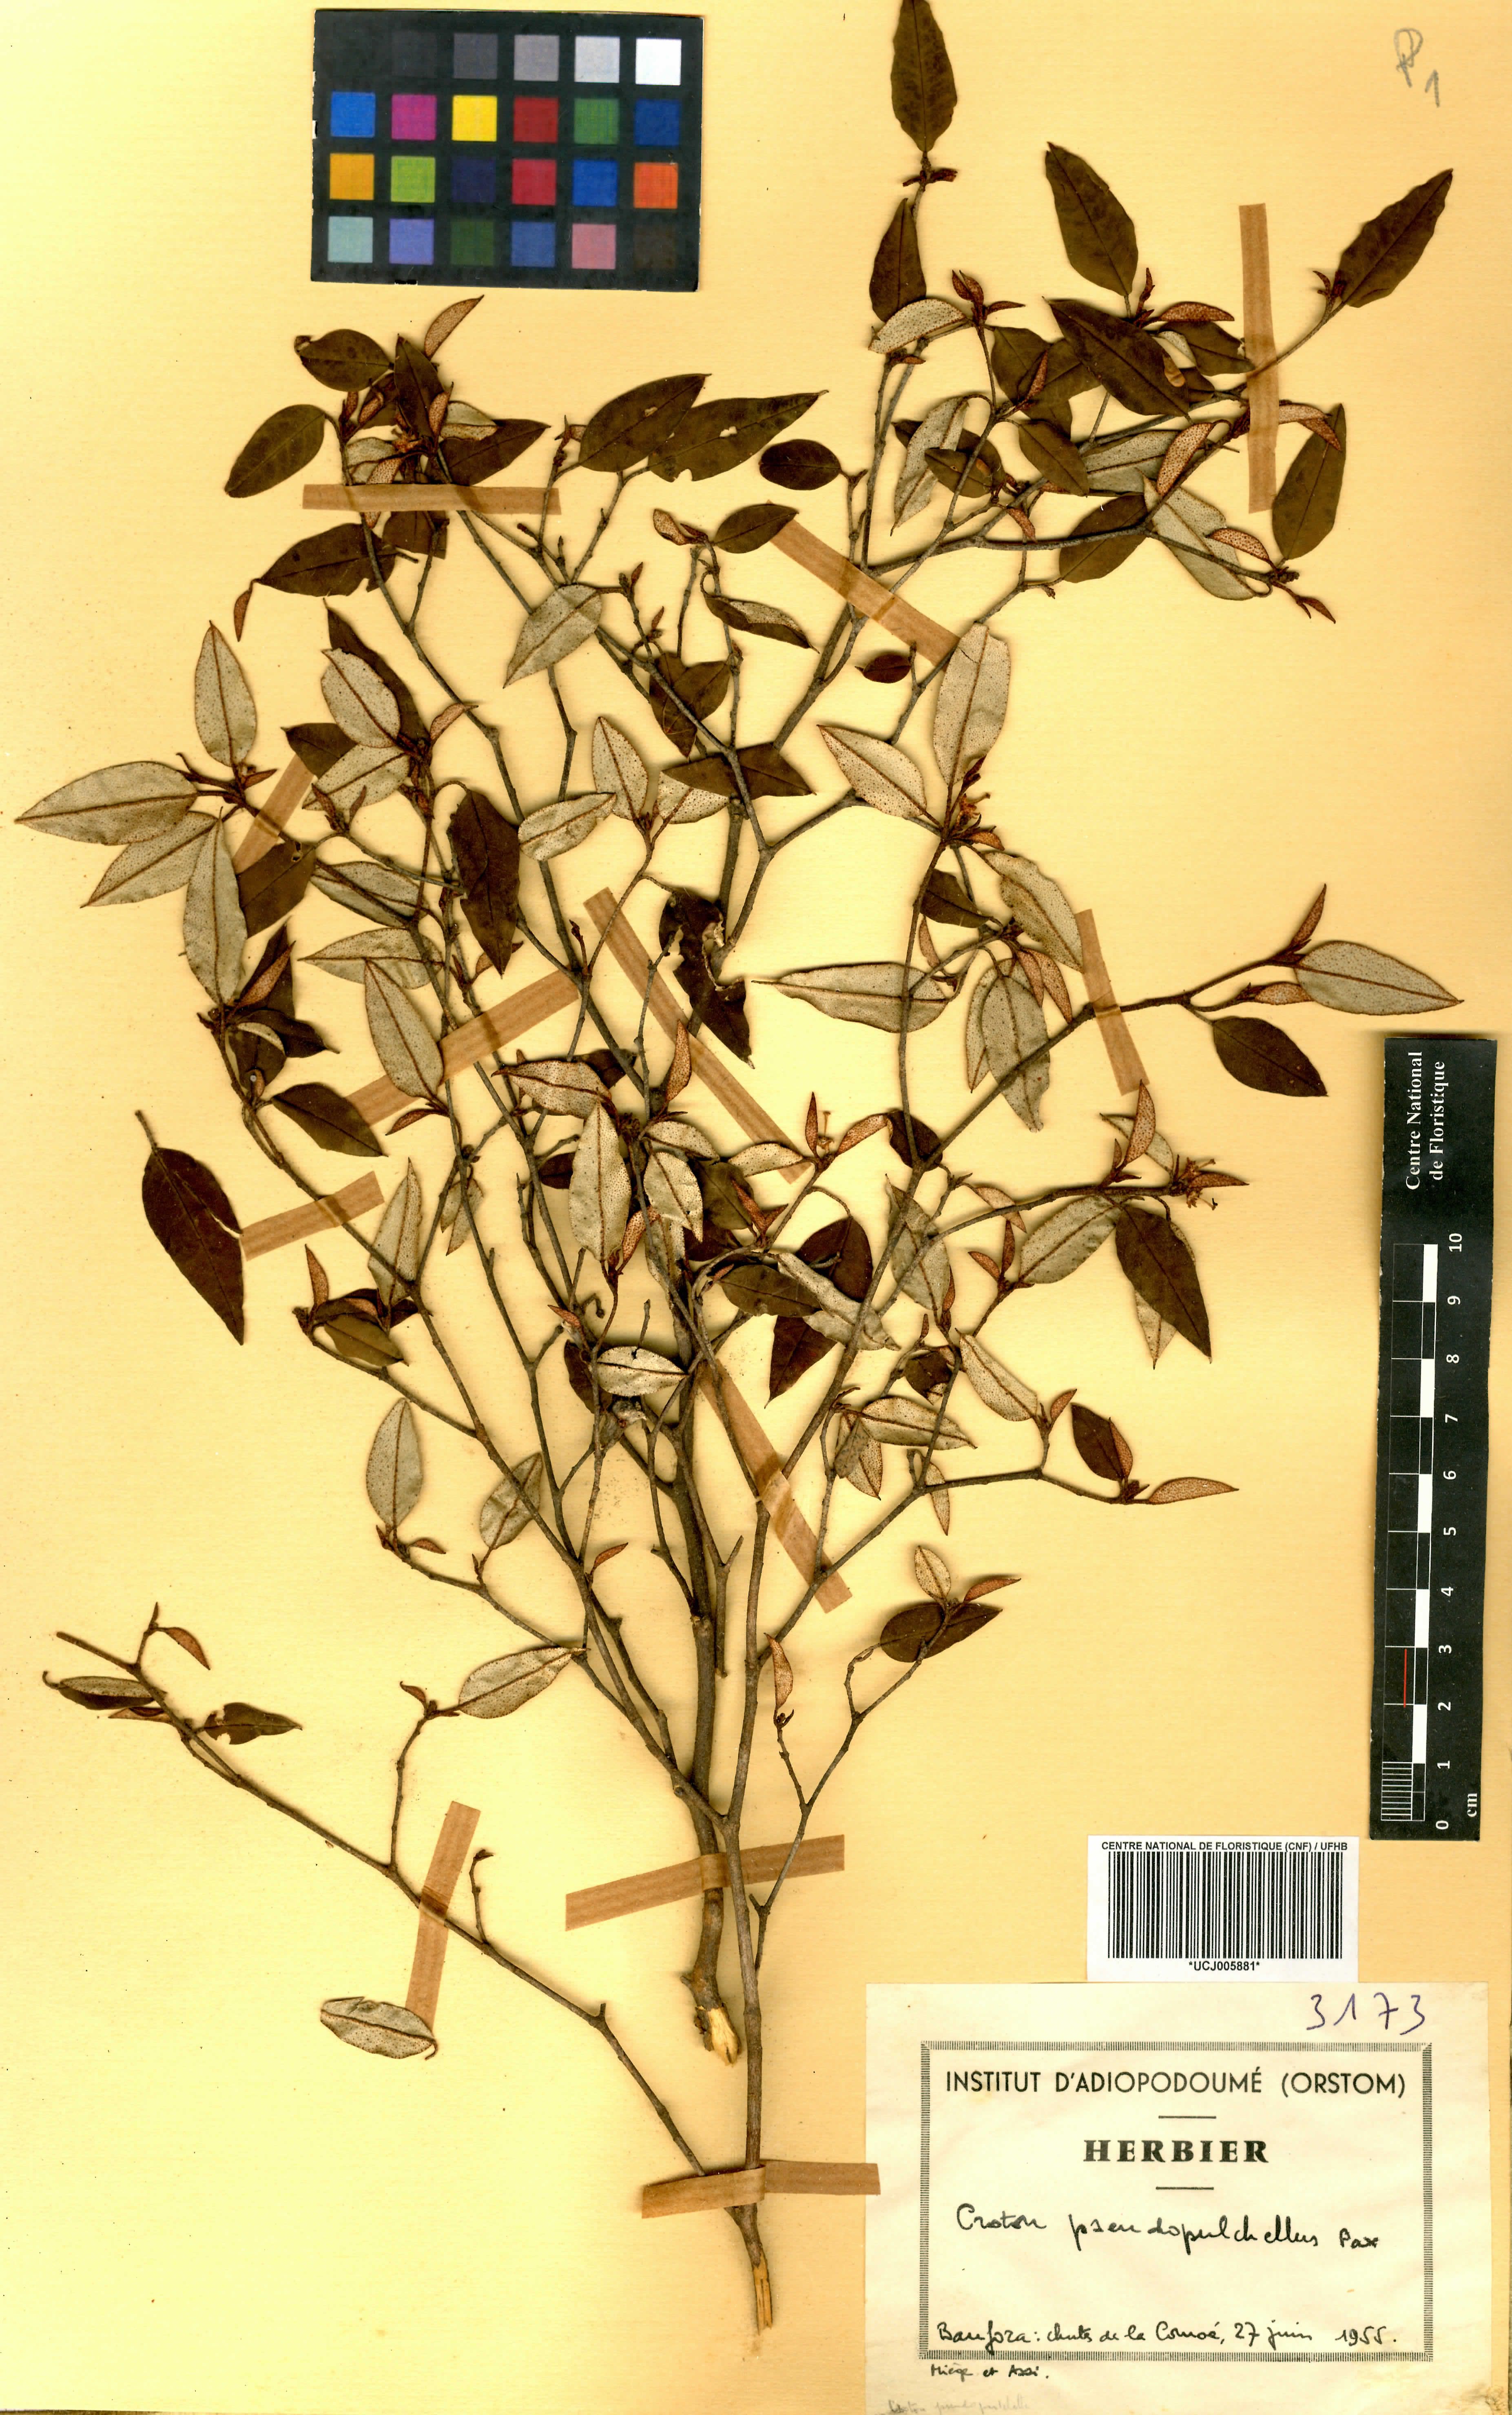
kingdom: Plantae
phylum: Tracheophyta
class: Magnoliopsida
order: Malpighiales
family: Euphorbiaceae
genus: Croton
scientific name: Croton pseudopulchellus
